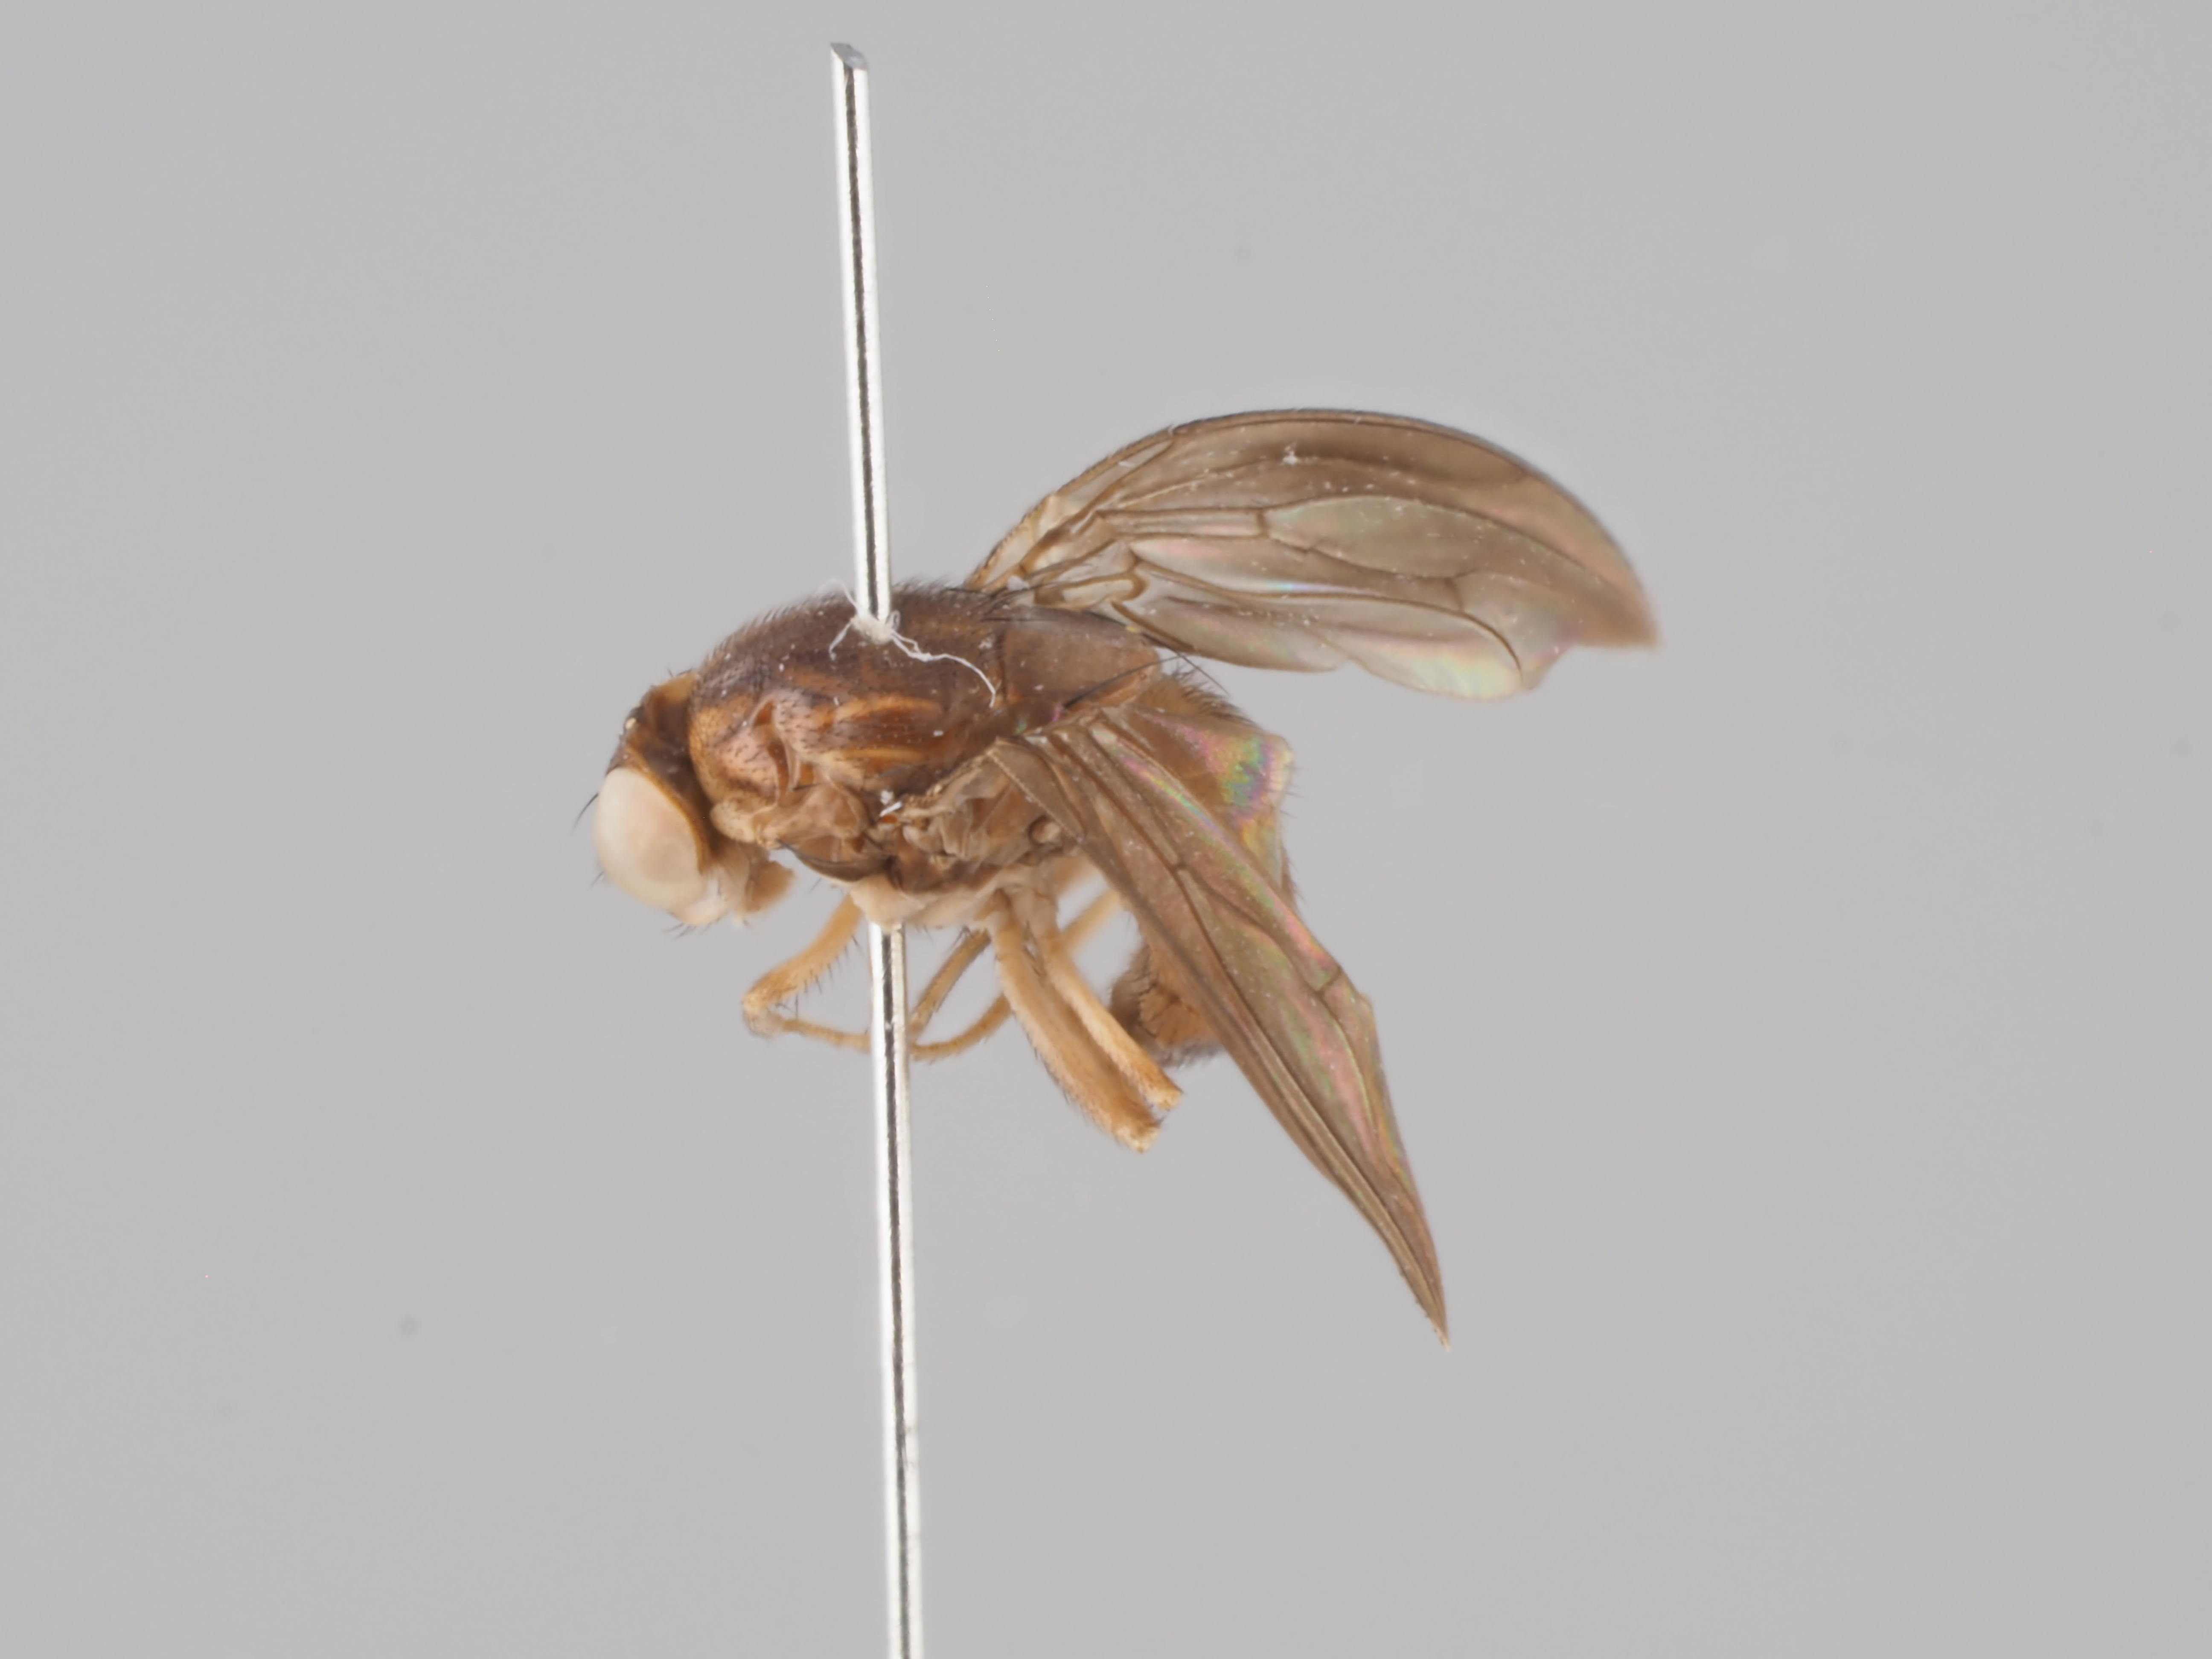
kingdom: Animalia
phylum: Arthropoda
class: Insecta
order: Diptera
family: Drosophilidae
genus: Stegana
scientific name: Stegana hypoleuca
